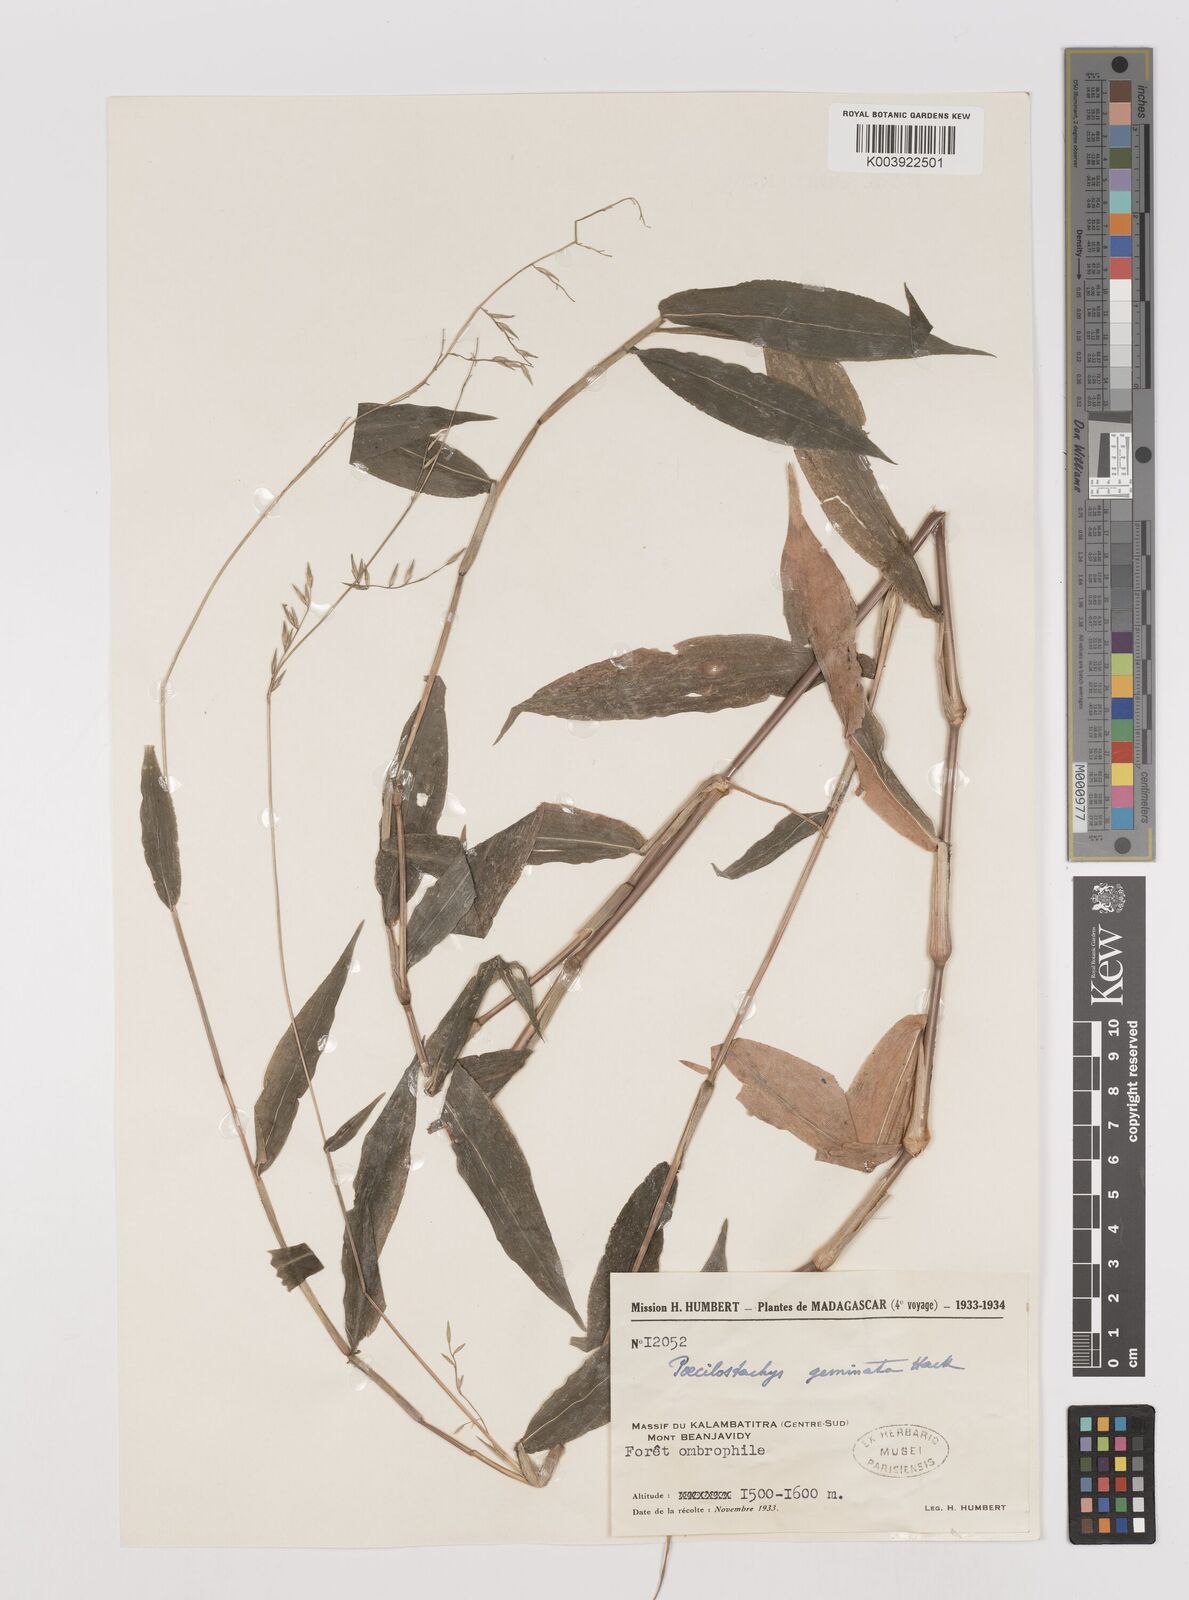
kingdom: Plantae
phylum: Tracheophyta
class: Liliopsida
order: Poales
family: Poaceae
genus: Poecilostachys
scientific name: Poecilostachys
